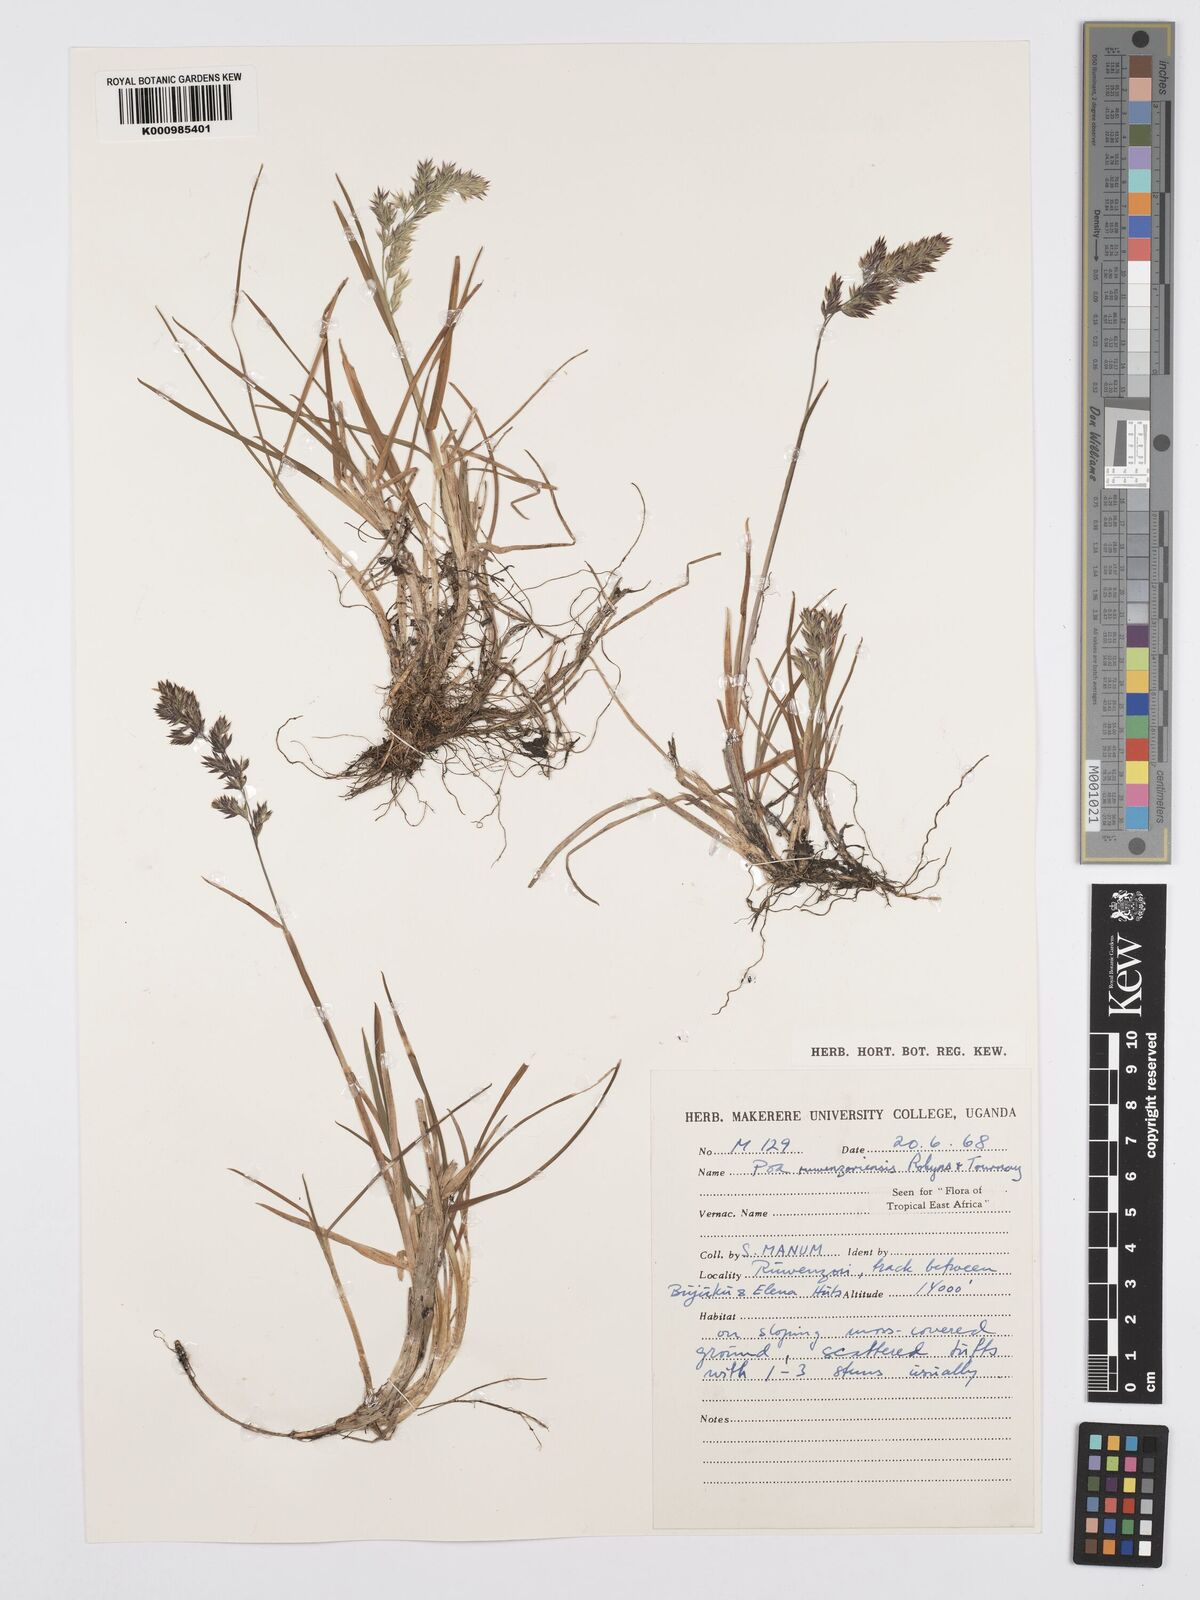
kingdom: Plantae
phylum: Tracheophyta
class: Liliopsida
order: Poales
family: Poaceae
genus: Poa
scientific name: Poa ruwenzoriensis
